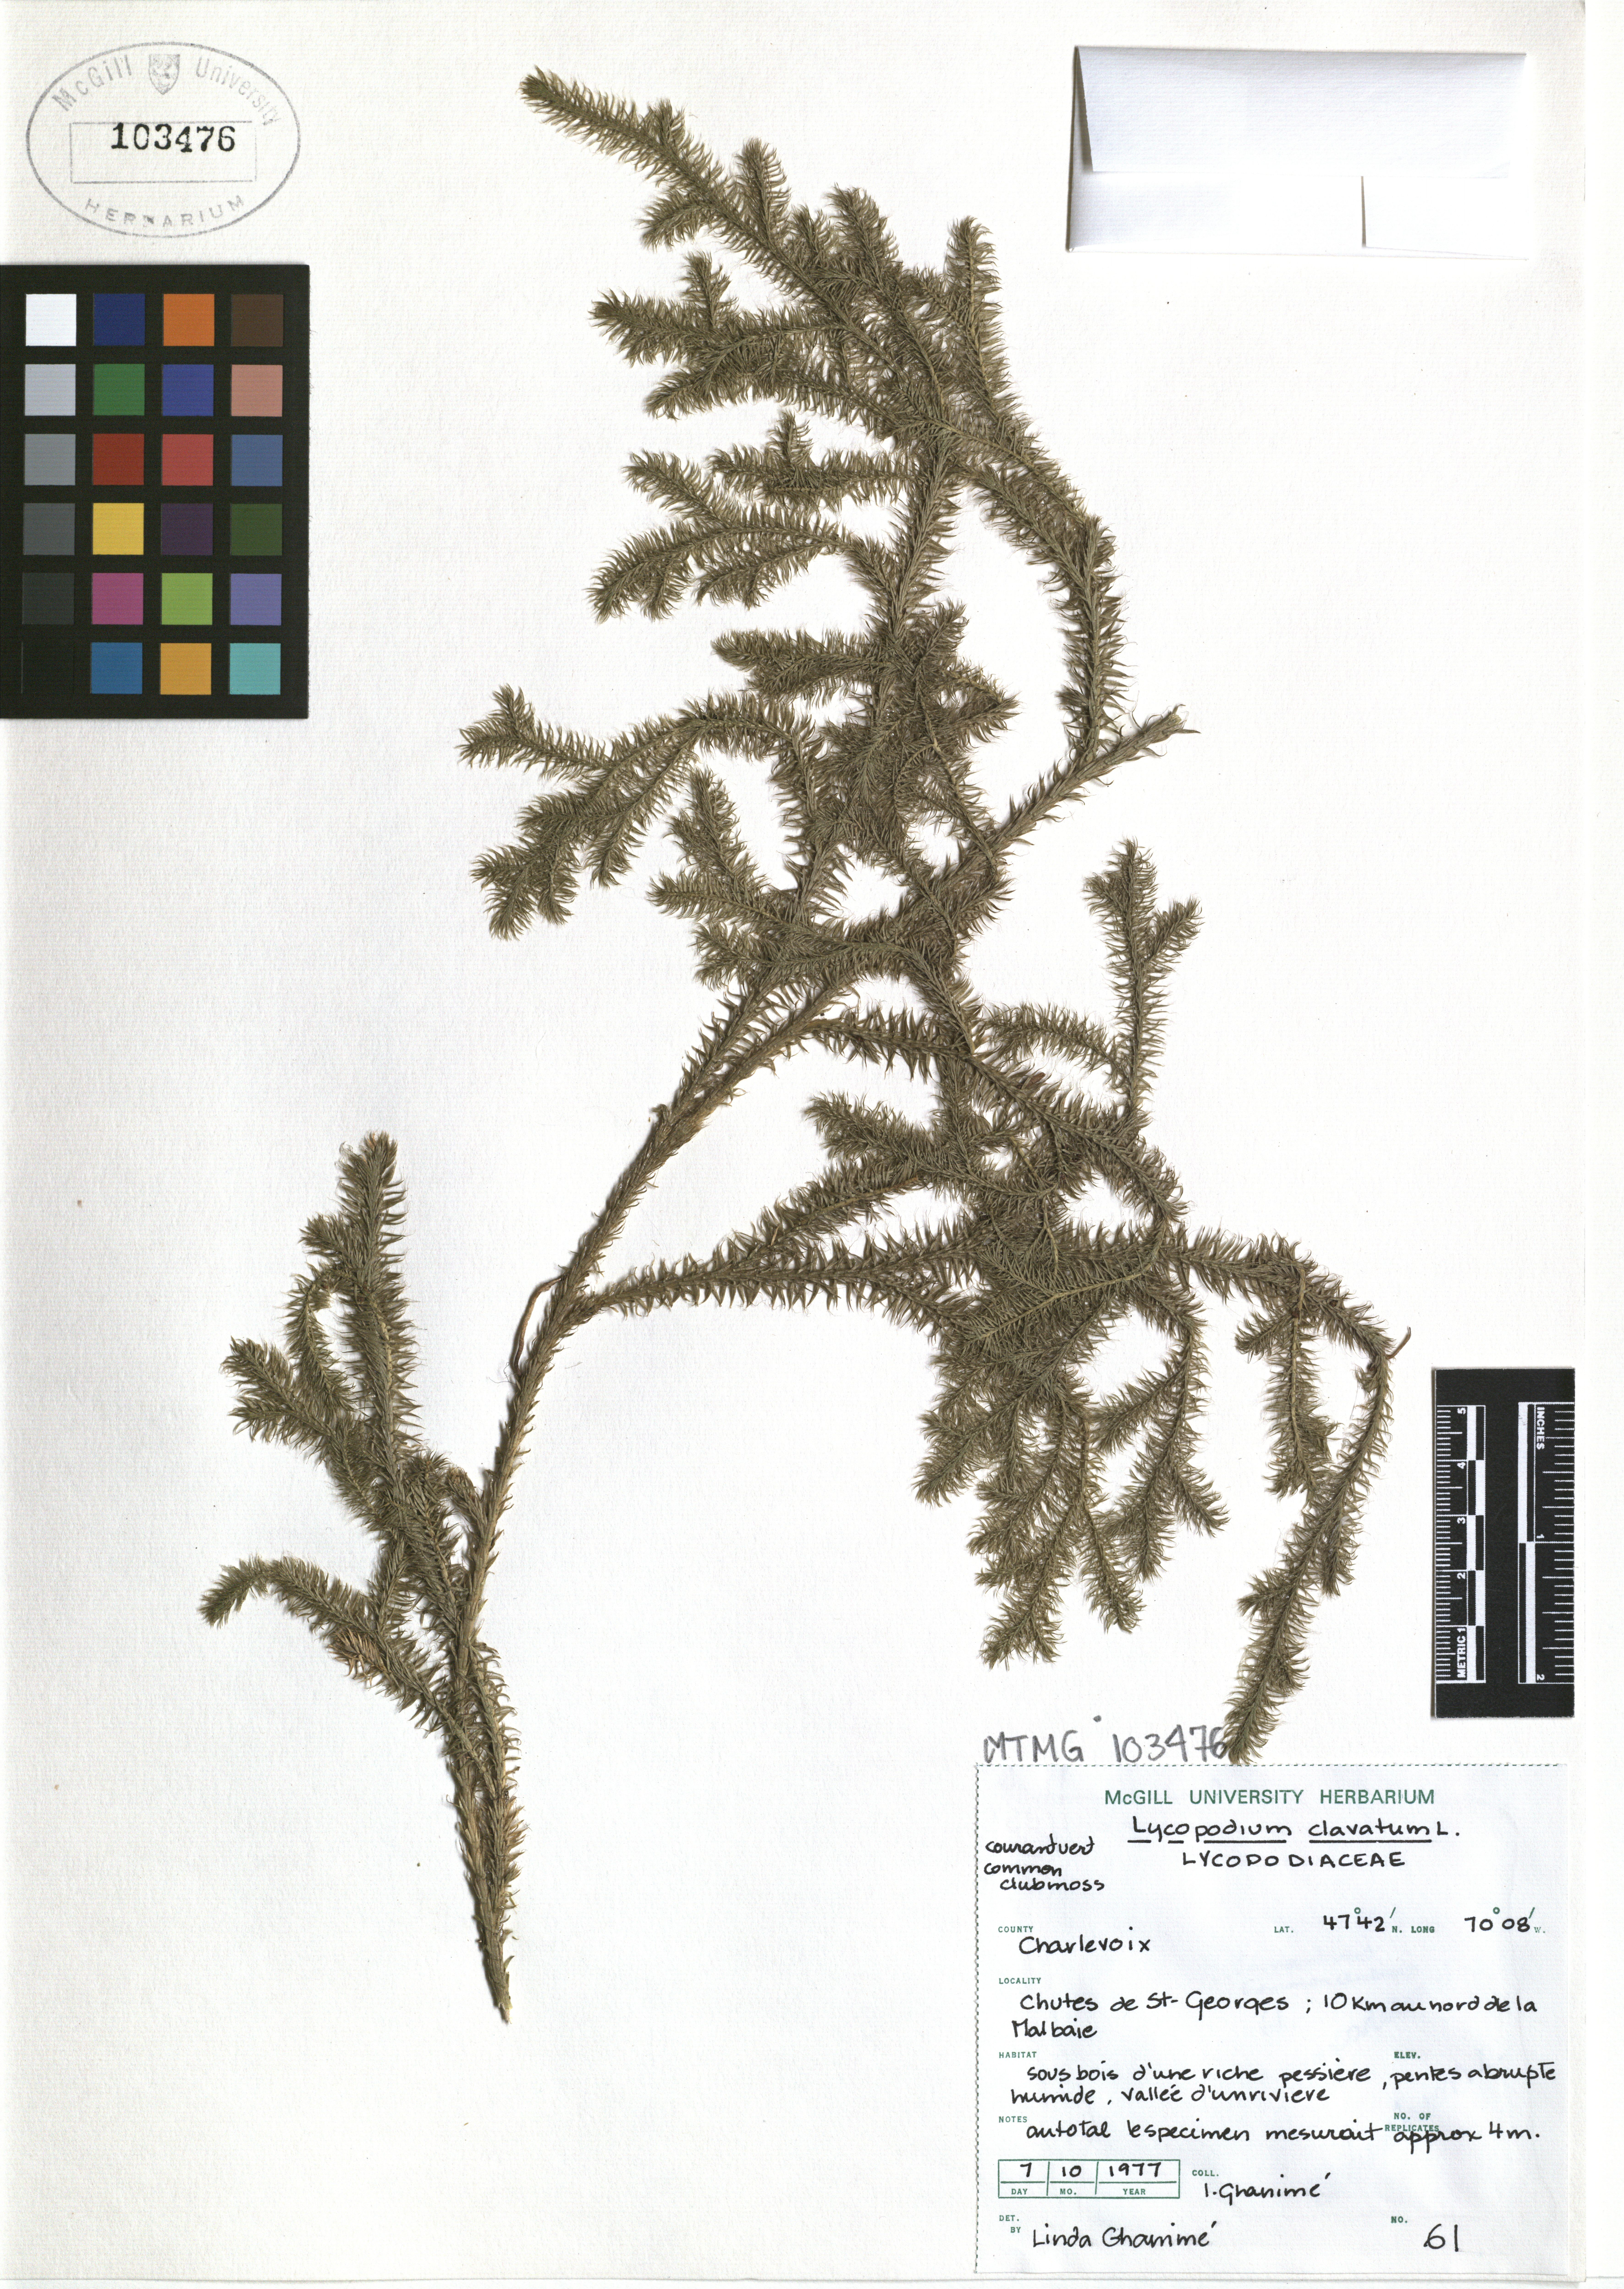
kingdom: Plantae
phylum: Tracheophyta
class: Lycopodiopsida
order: Lycopodiales
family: Lycopodiaceae
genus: Lycopodium
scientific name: Lycopodium clavatum
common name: Stag's-horn clubmoss
